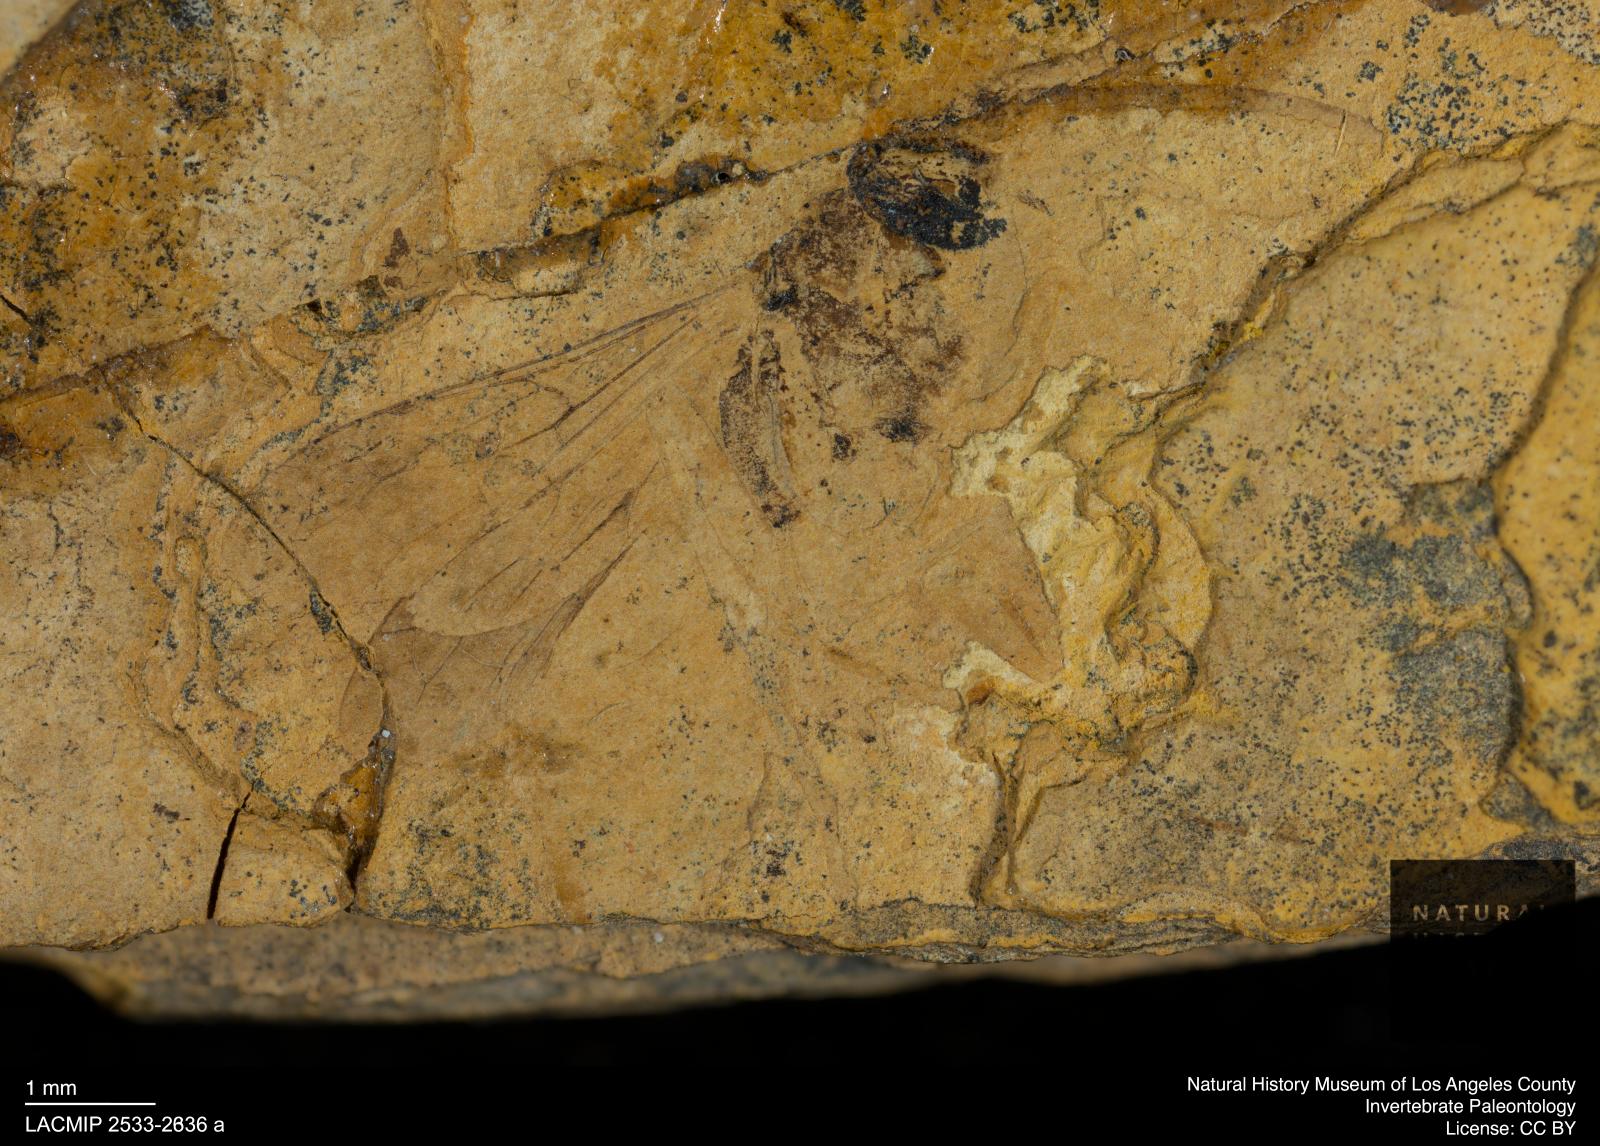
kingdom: Animalia
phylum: Arthropoda
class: Insecta
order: Hymenoptera
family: Formicidae
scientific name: Formicidae
